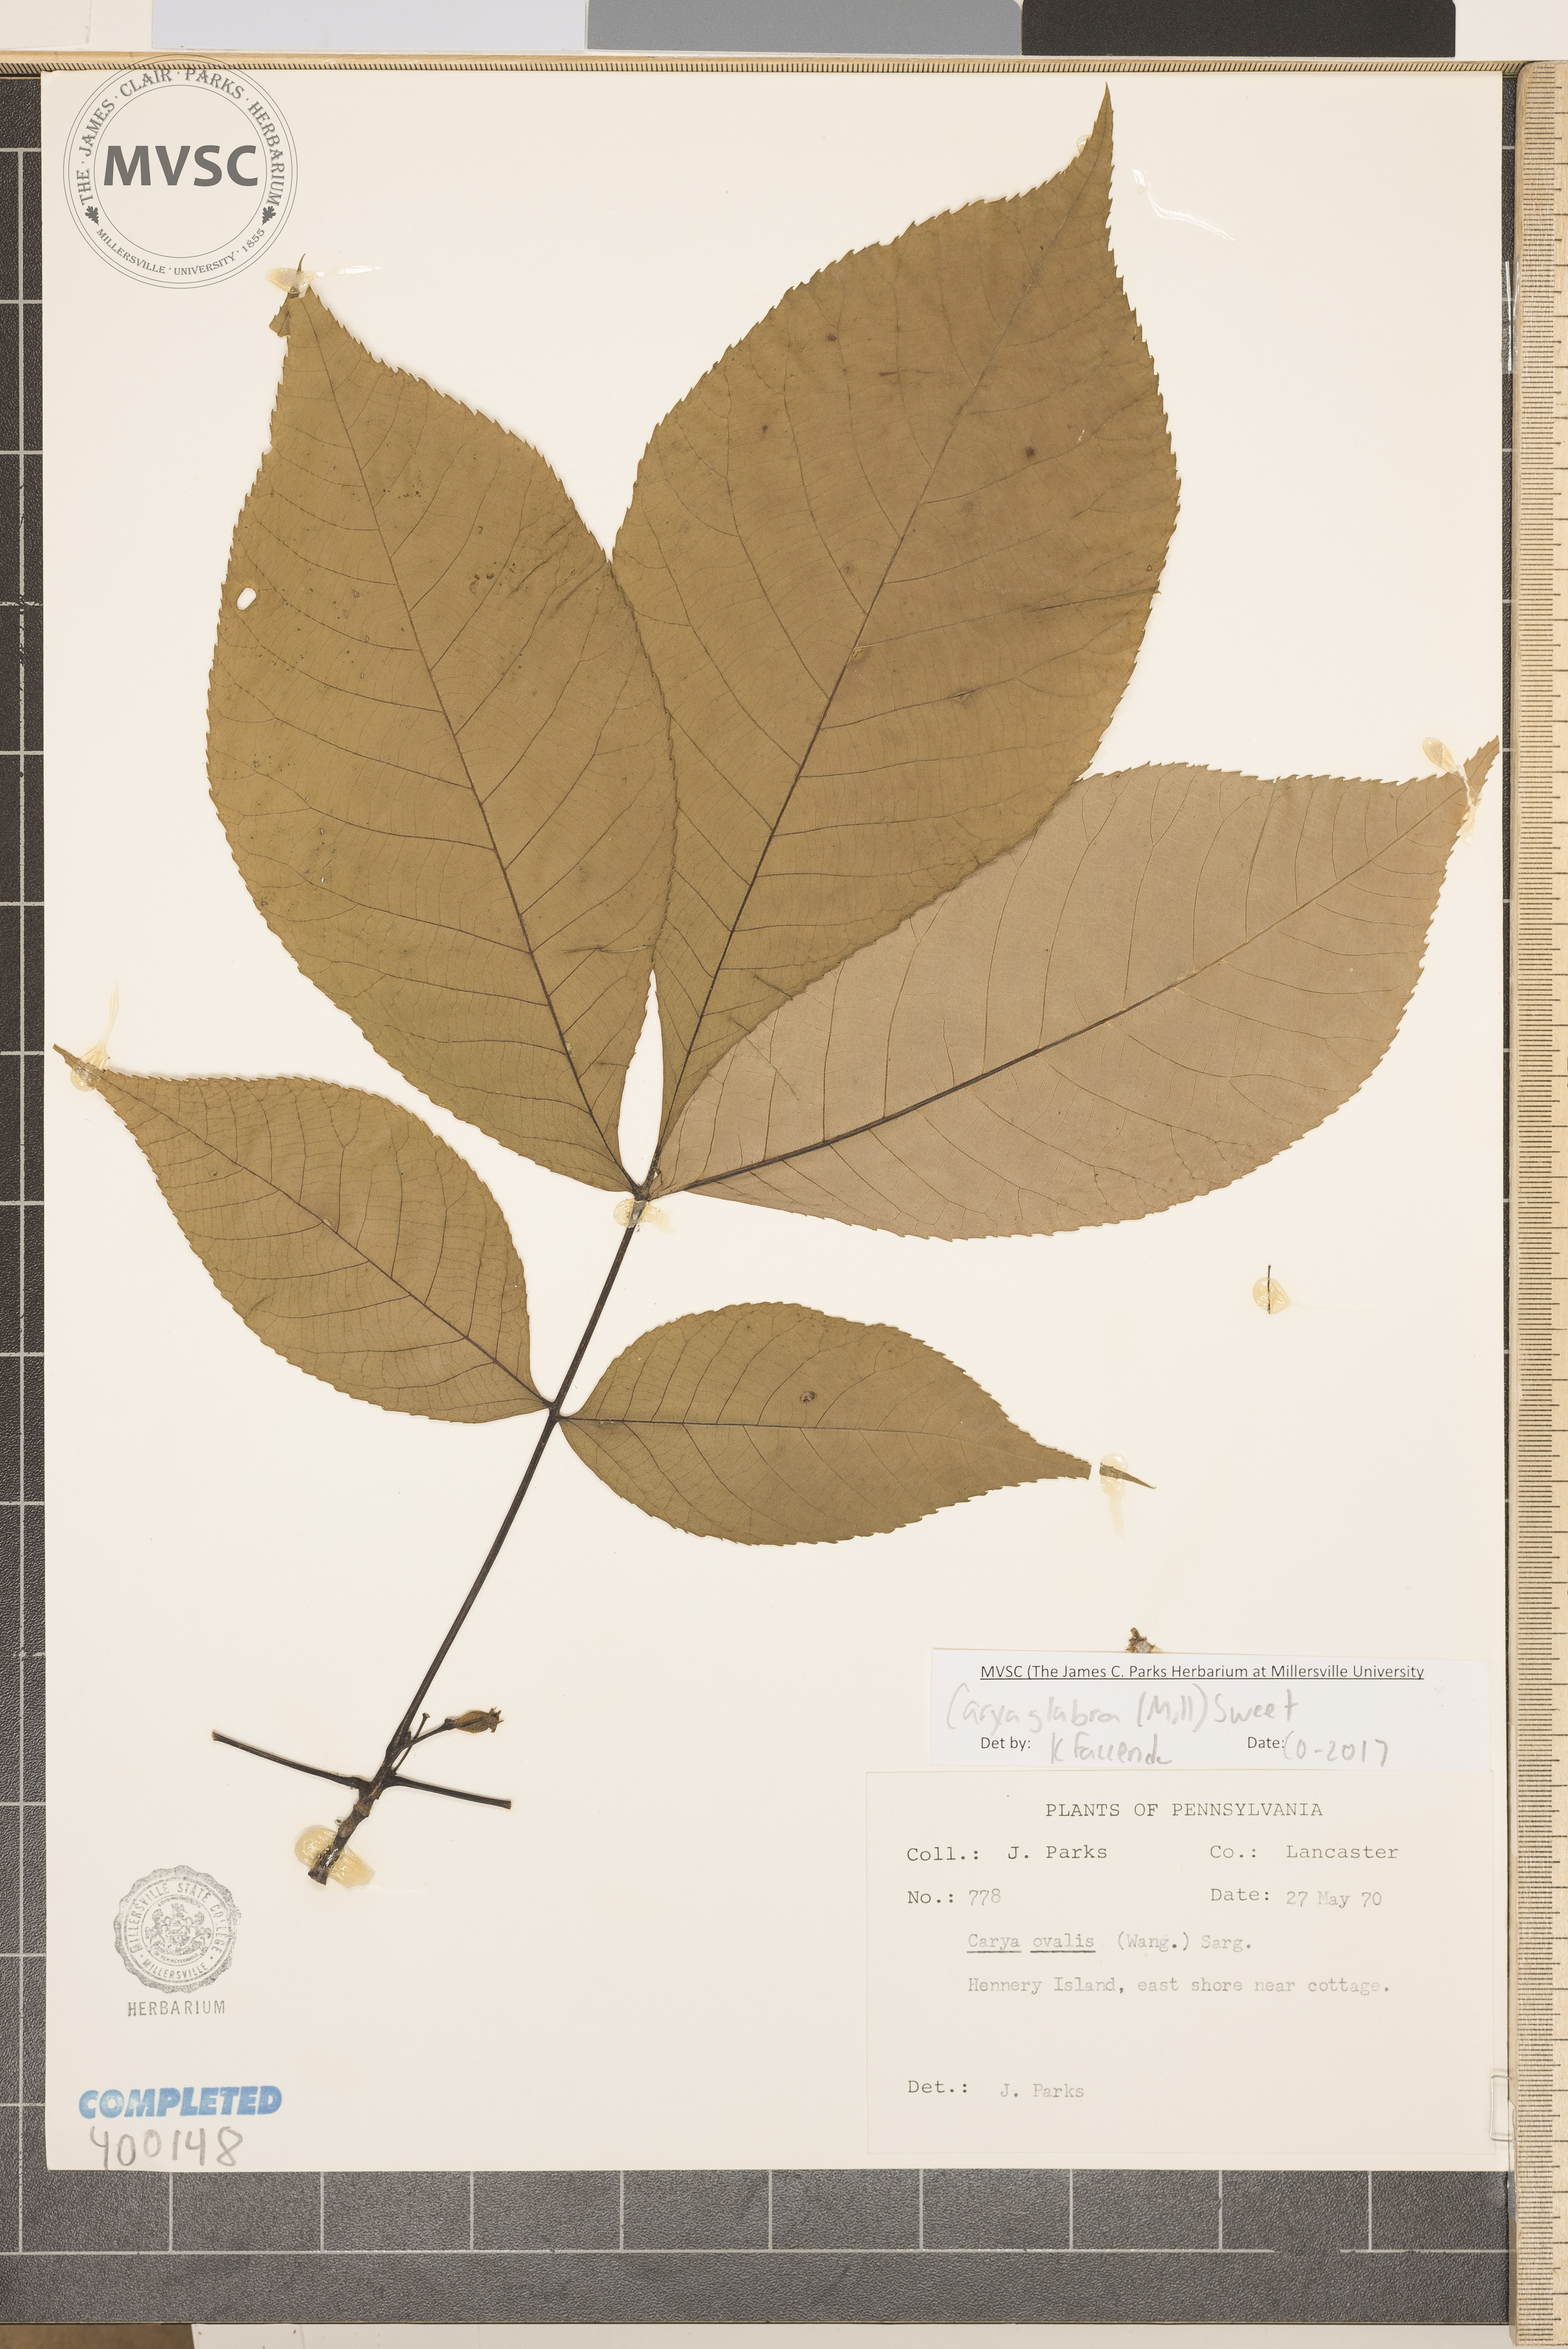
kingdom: Plantae
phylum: Tracheophyta
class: Magnoliopsida
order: Fagales
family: Juglandaceae
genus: Carya
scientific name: Carya glabra
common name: pignut hickory
